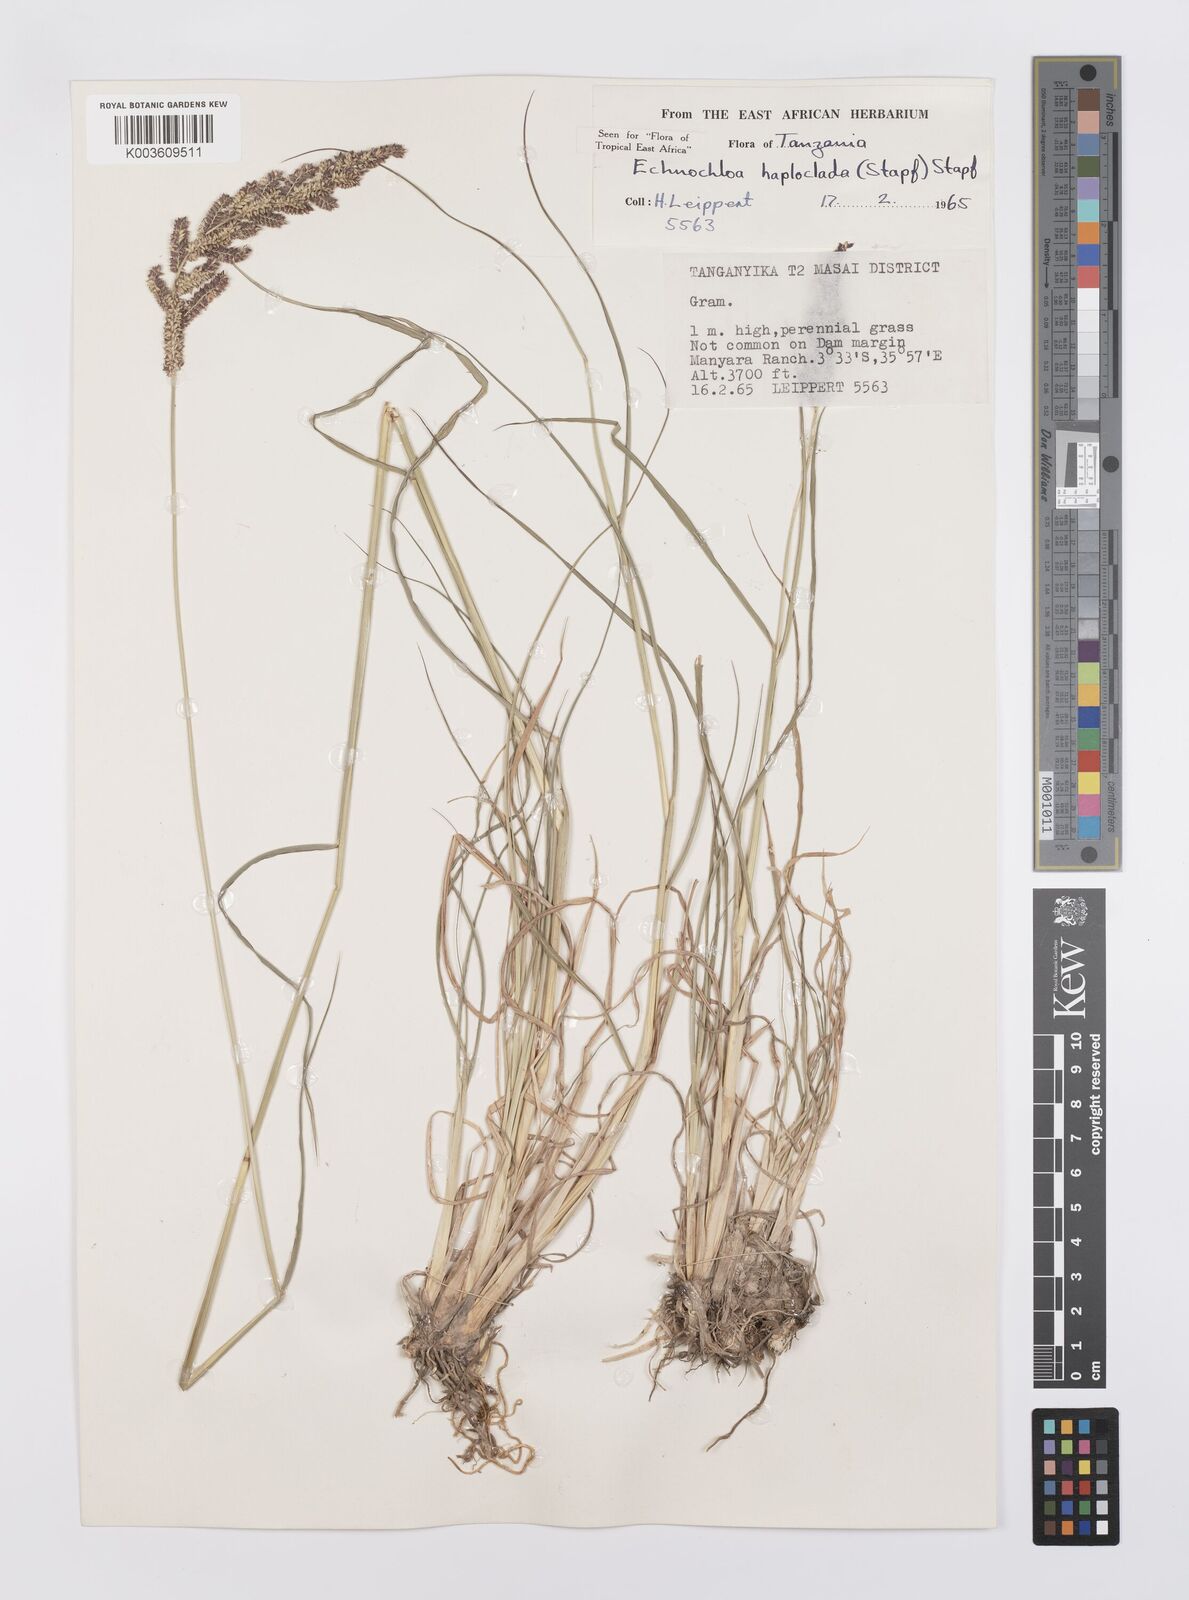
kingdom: Plantae
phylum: Tracheophyta
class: Liliopsida
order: Poales
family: Poaceae
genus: Echinochloa
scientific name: Echinochloa haploclada
